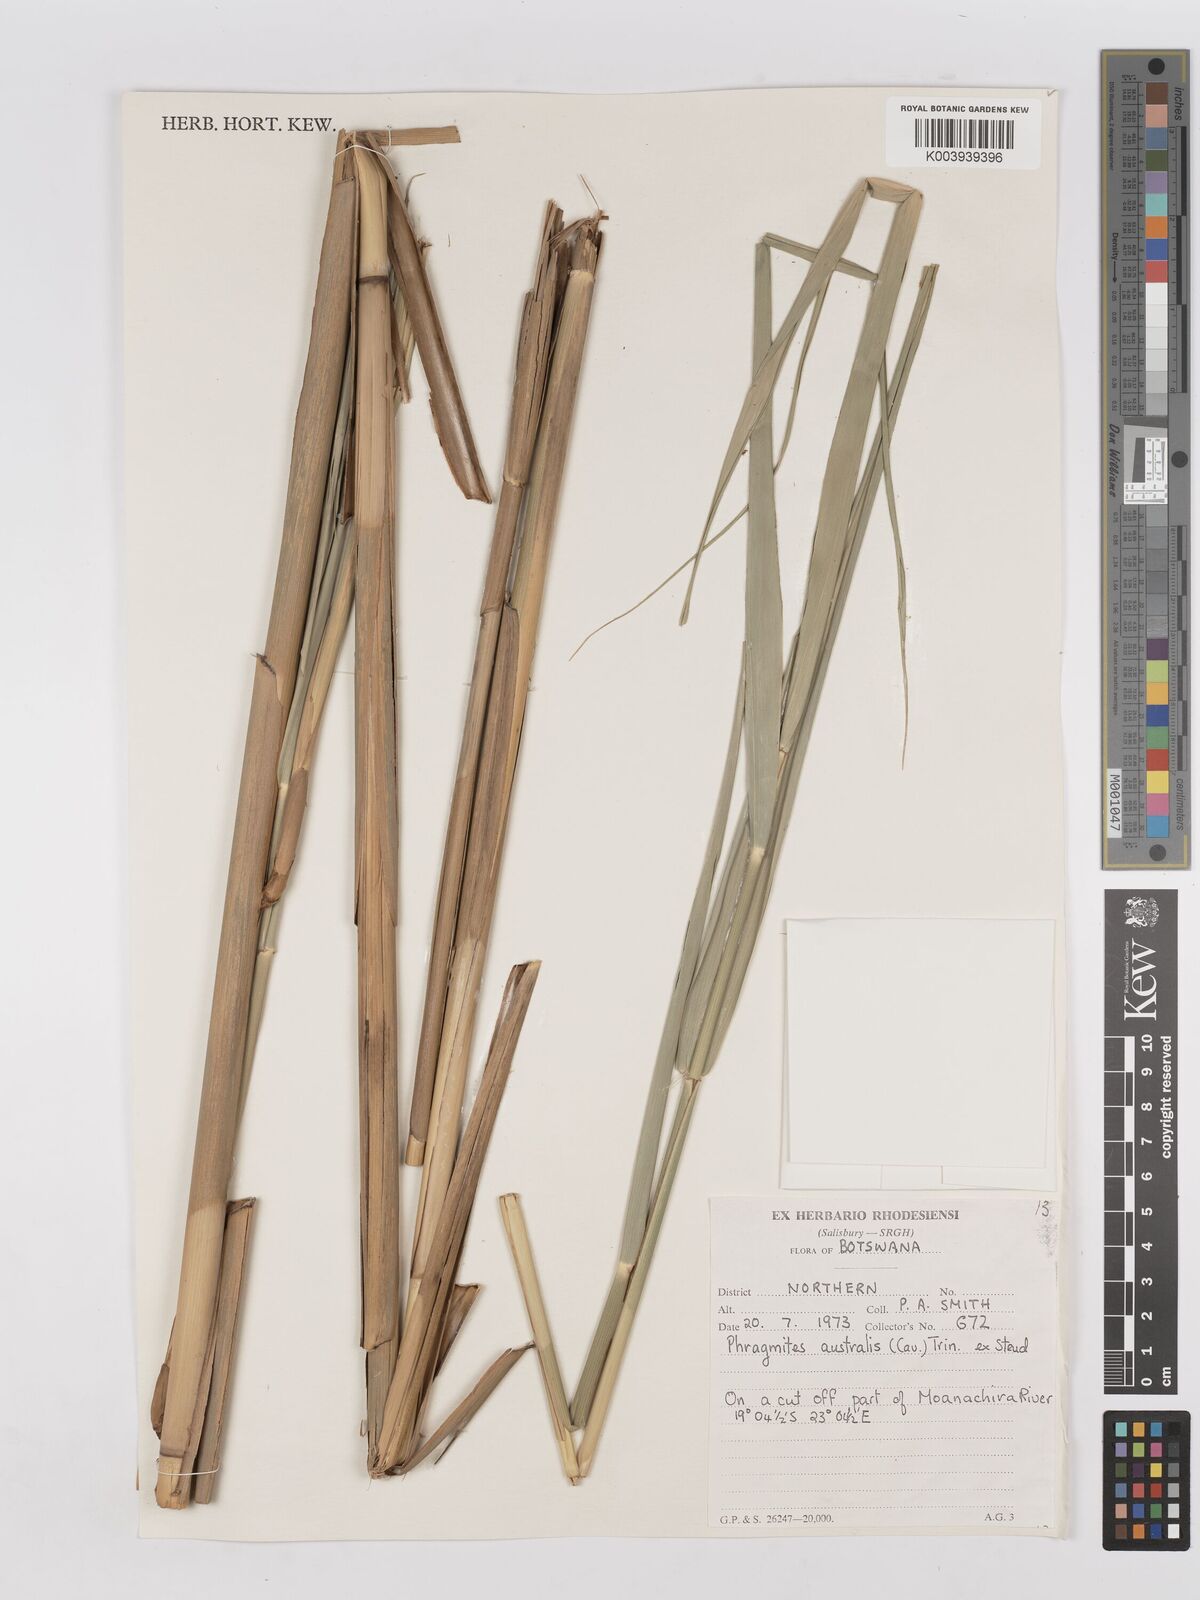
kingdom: Plantae
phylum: Tracheophyta
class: Liliopsida
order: Poales
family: Poaceae
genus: Phragmites
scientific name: Phragmites australis
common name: Common reed
